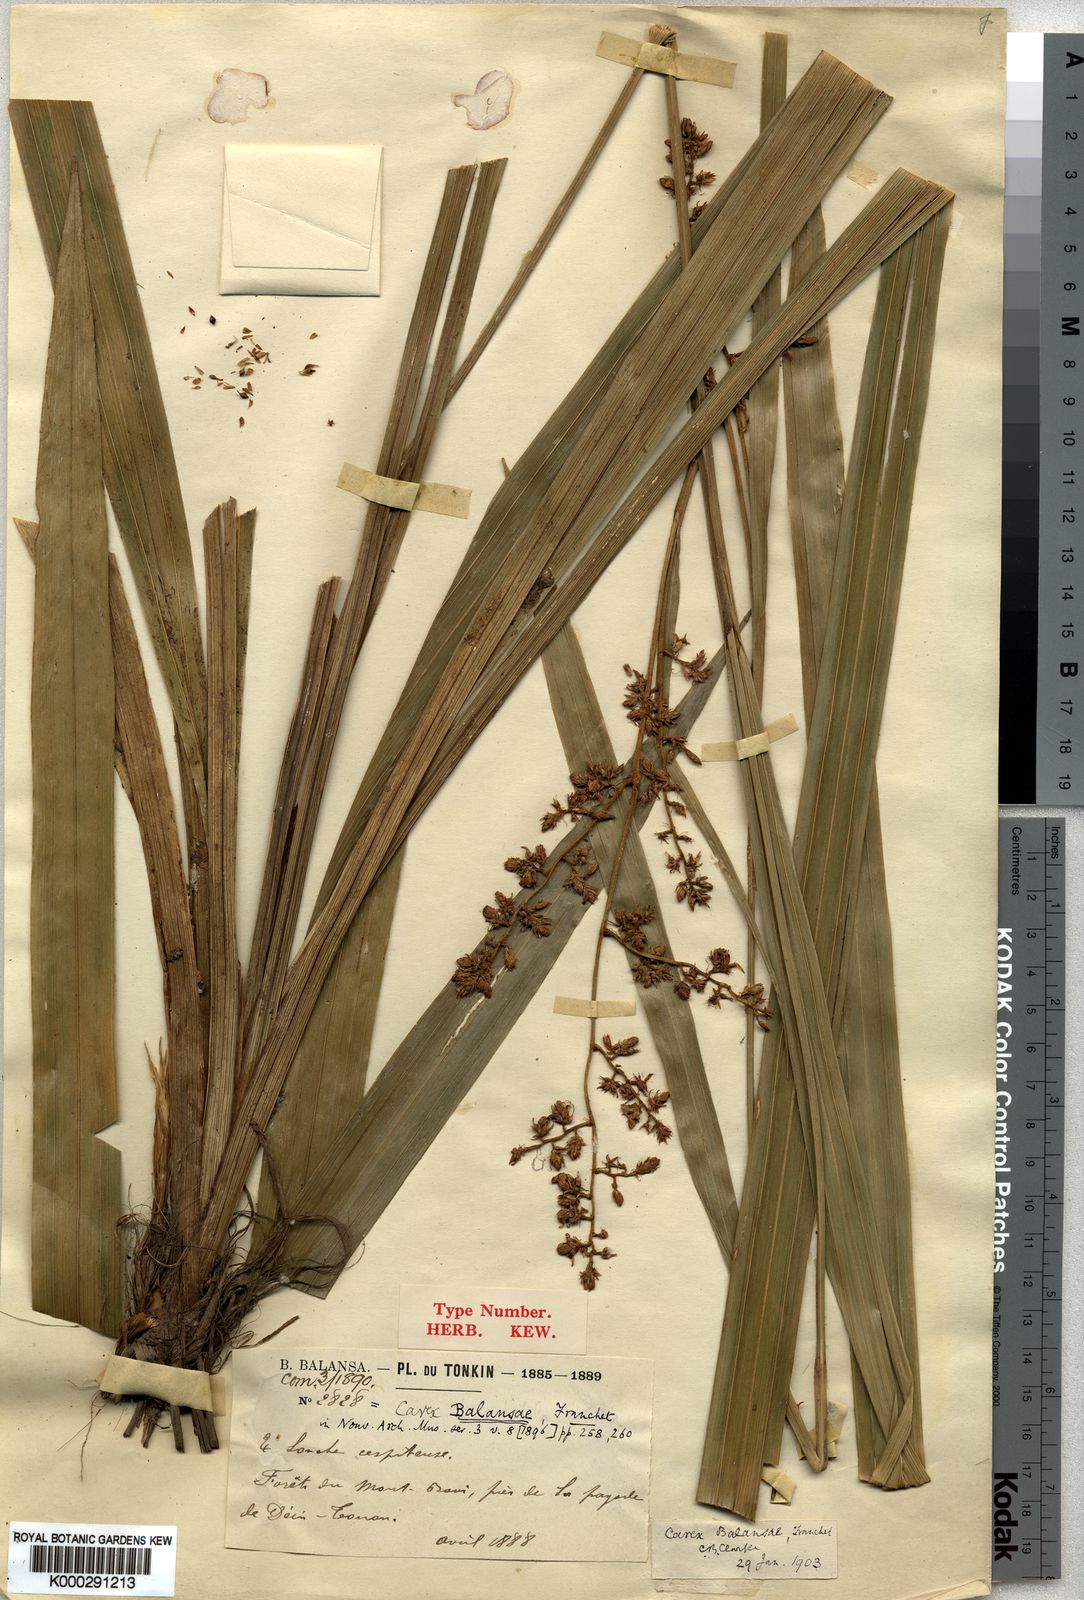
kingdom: Plantae
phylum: Tracheophyta
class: Liliopsida
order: Poales
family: Cyperaceae
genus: Carex
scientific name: Carex balansae
